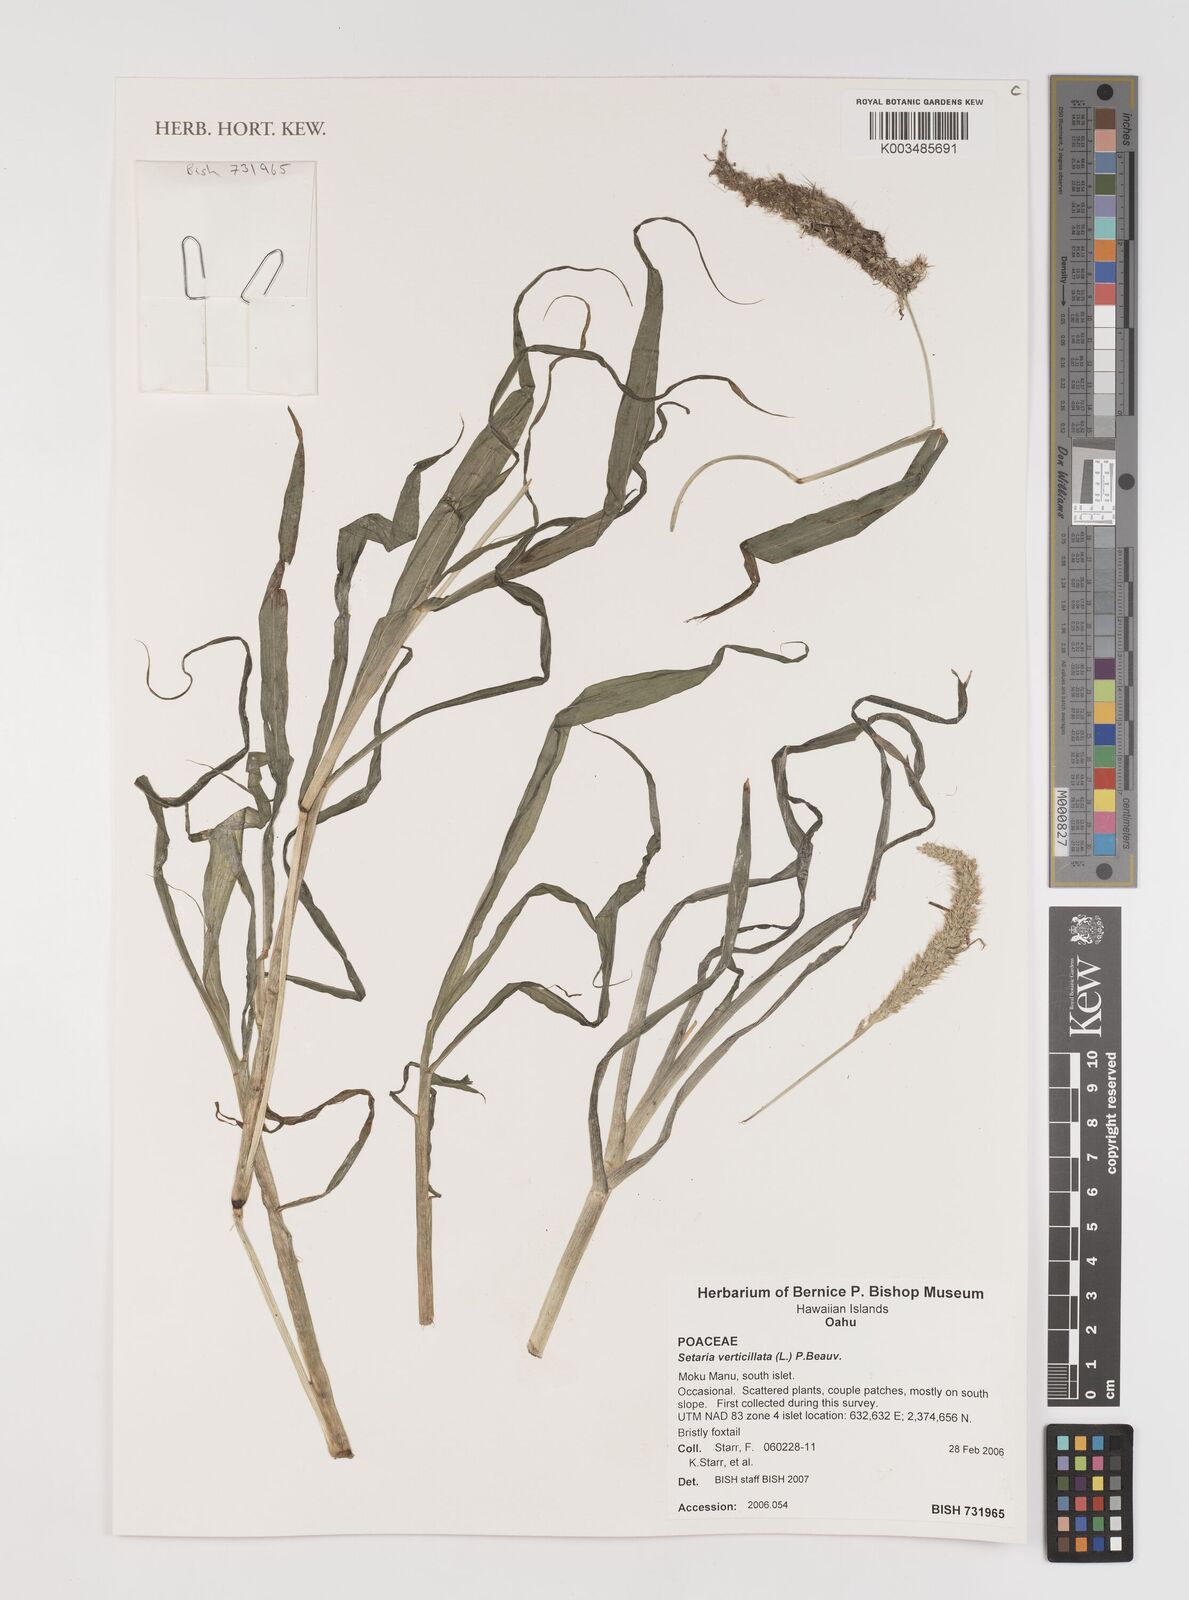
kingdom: Plantae
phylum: Tracheophyta
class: Liliopsida
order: Poales
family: Poaceae
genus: Setaria
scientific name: Setaria verticillata
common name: Hooked bristlegrass
